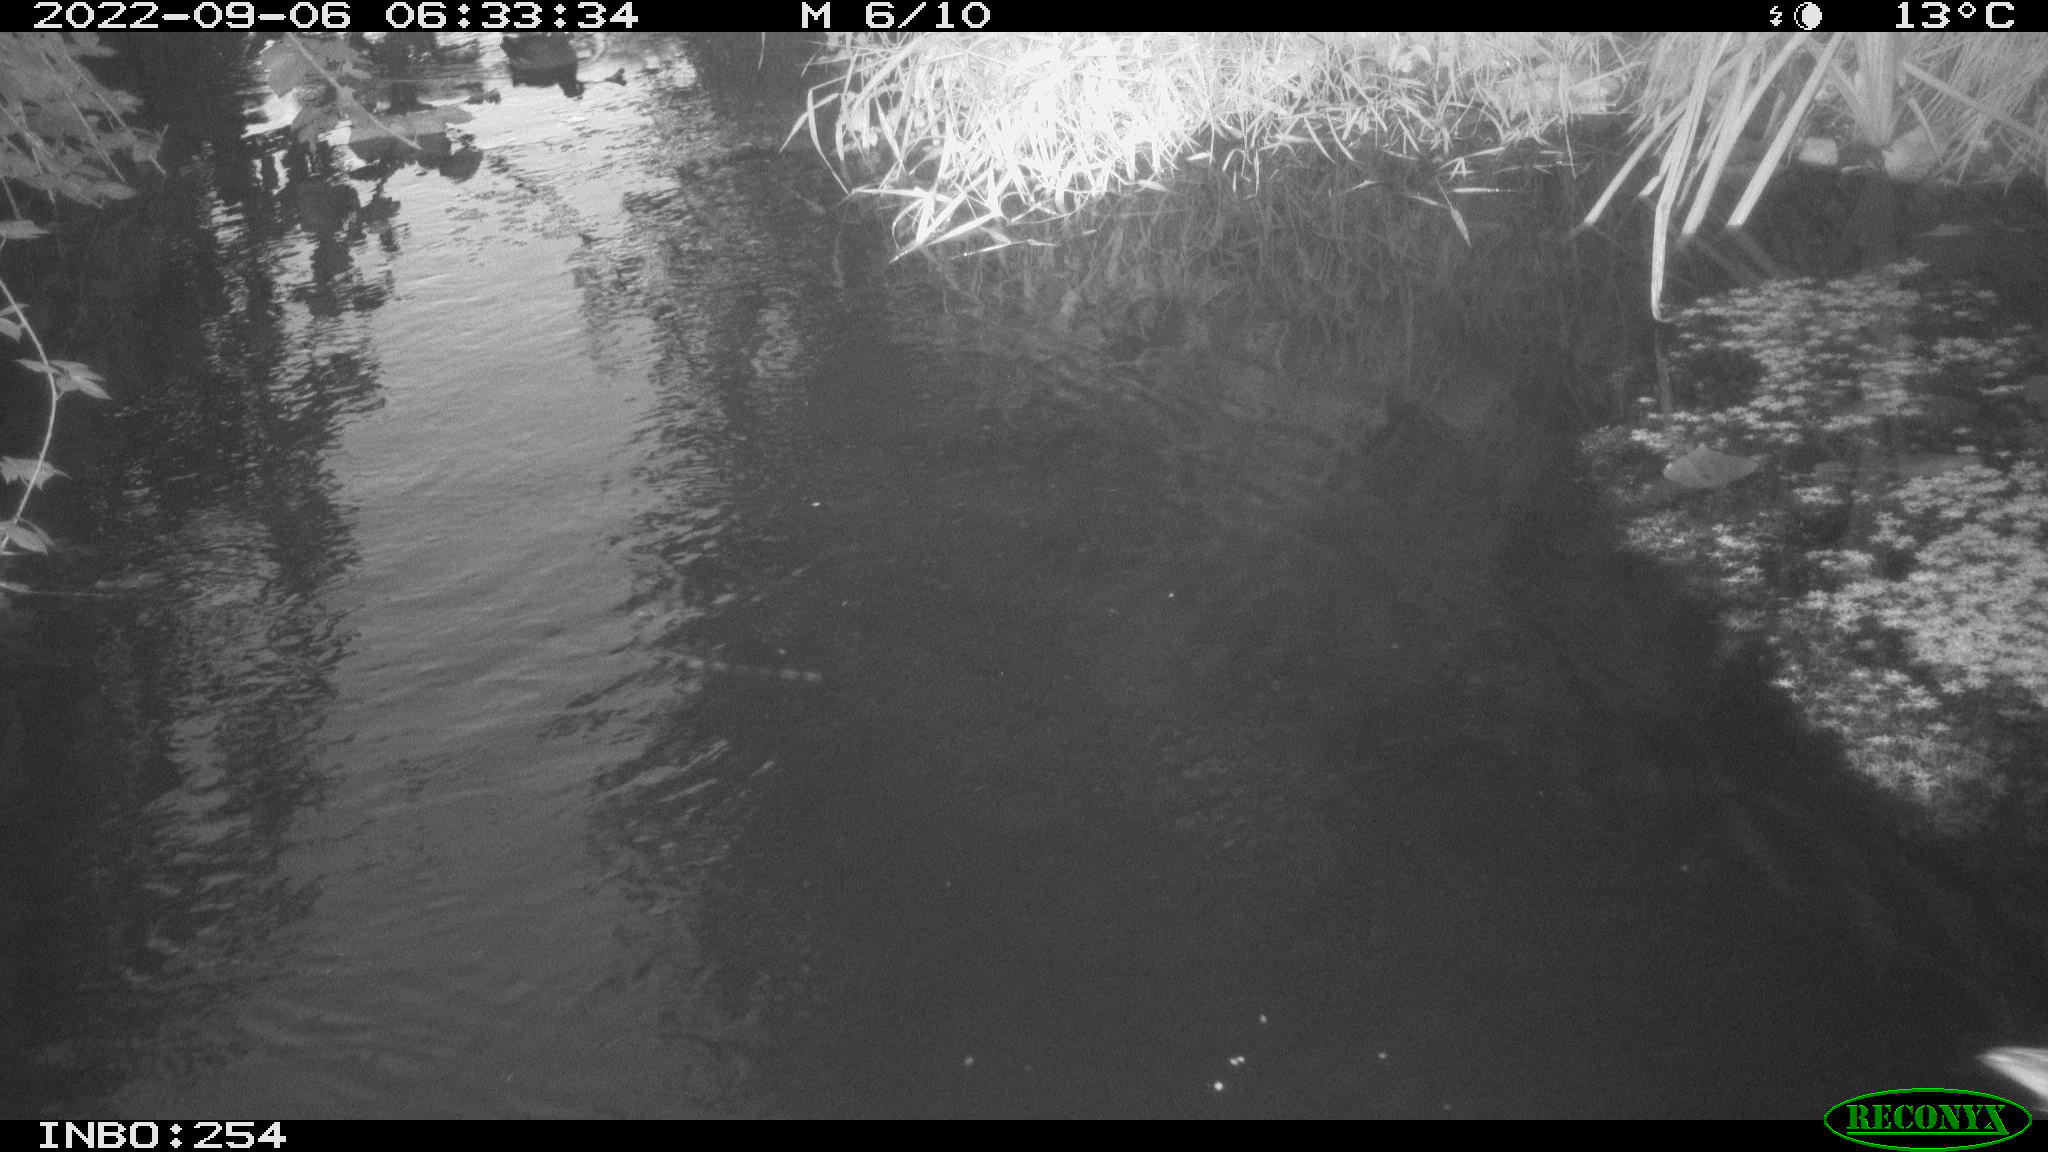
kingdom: Animalia
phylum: Chordata
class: Aves
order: Anseriformes
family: Anatidae
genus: Anas
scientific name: Anas platyrhynchos
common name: Mallard
